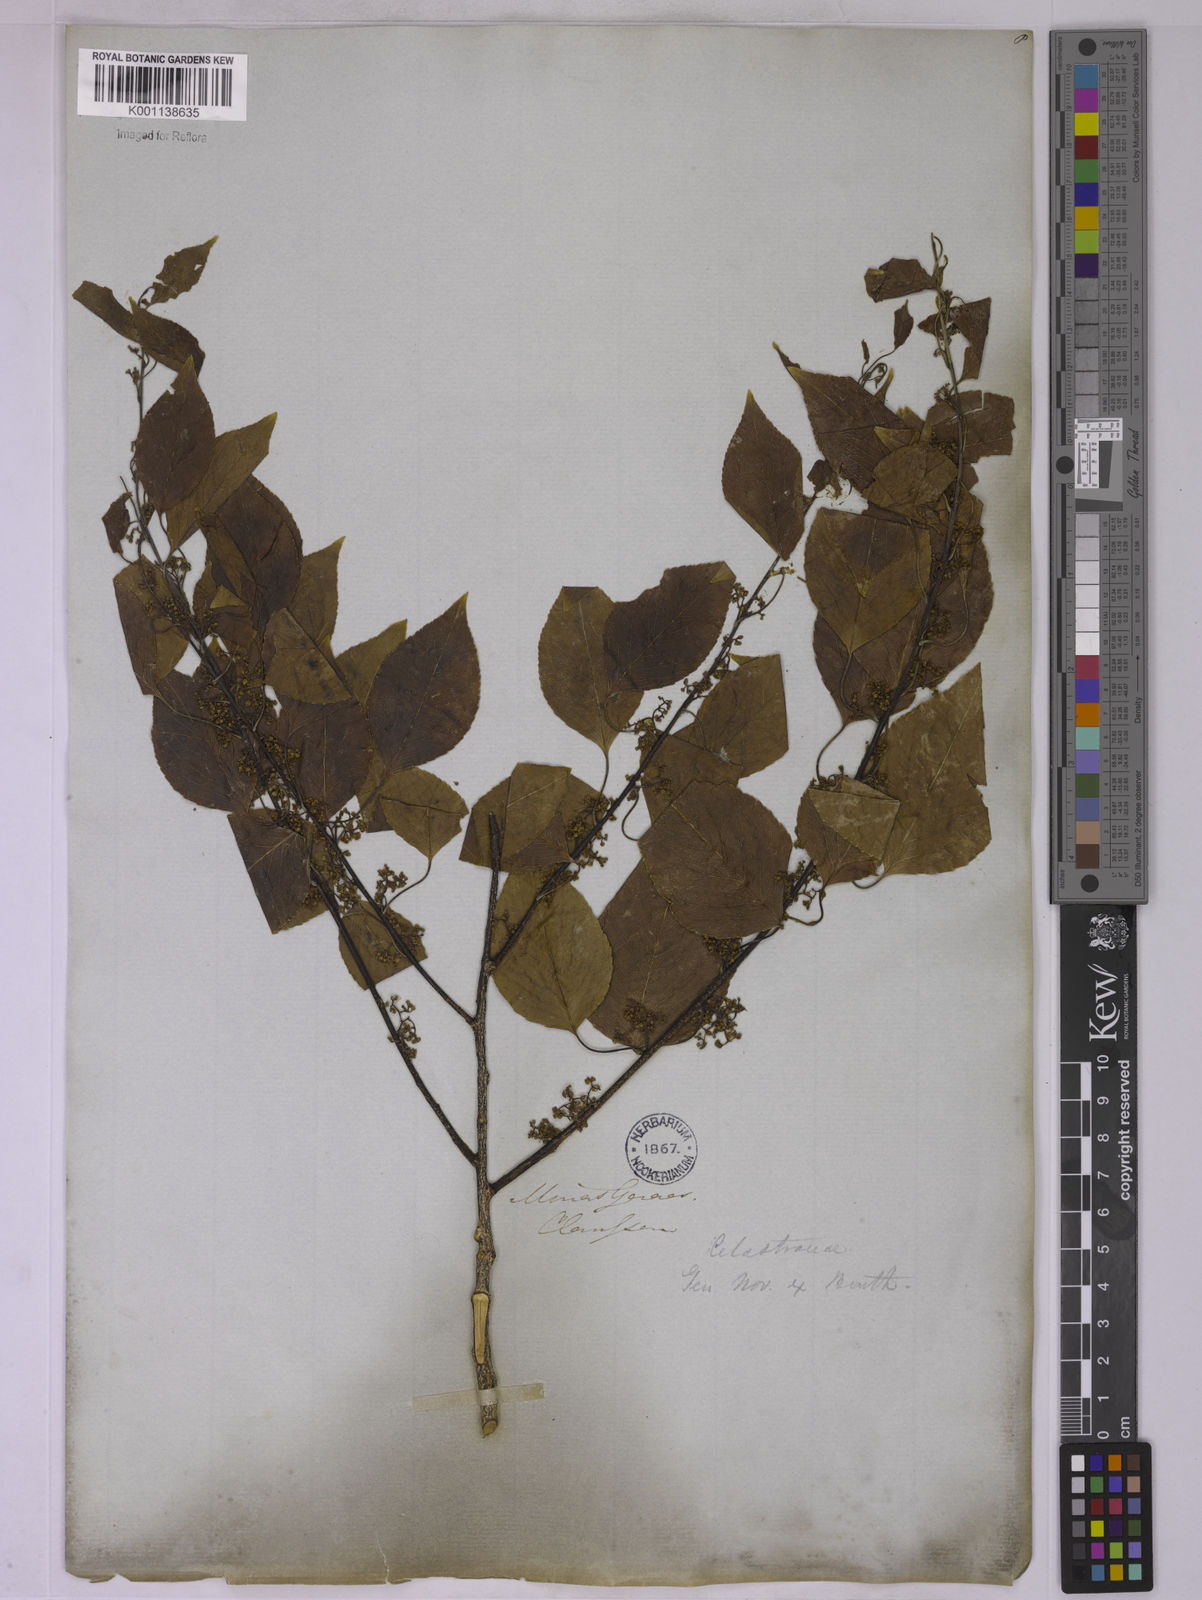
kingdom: Plantae
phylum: Tracheophyta
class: Magnoliopsida
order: Celastrales
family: Celastraceae
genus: Plenckia
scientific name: Plenckia populnea
